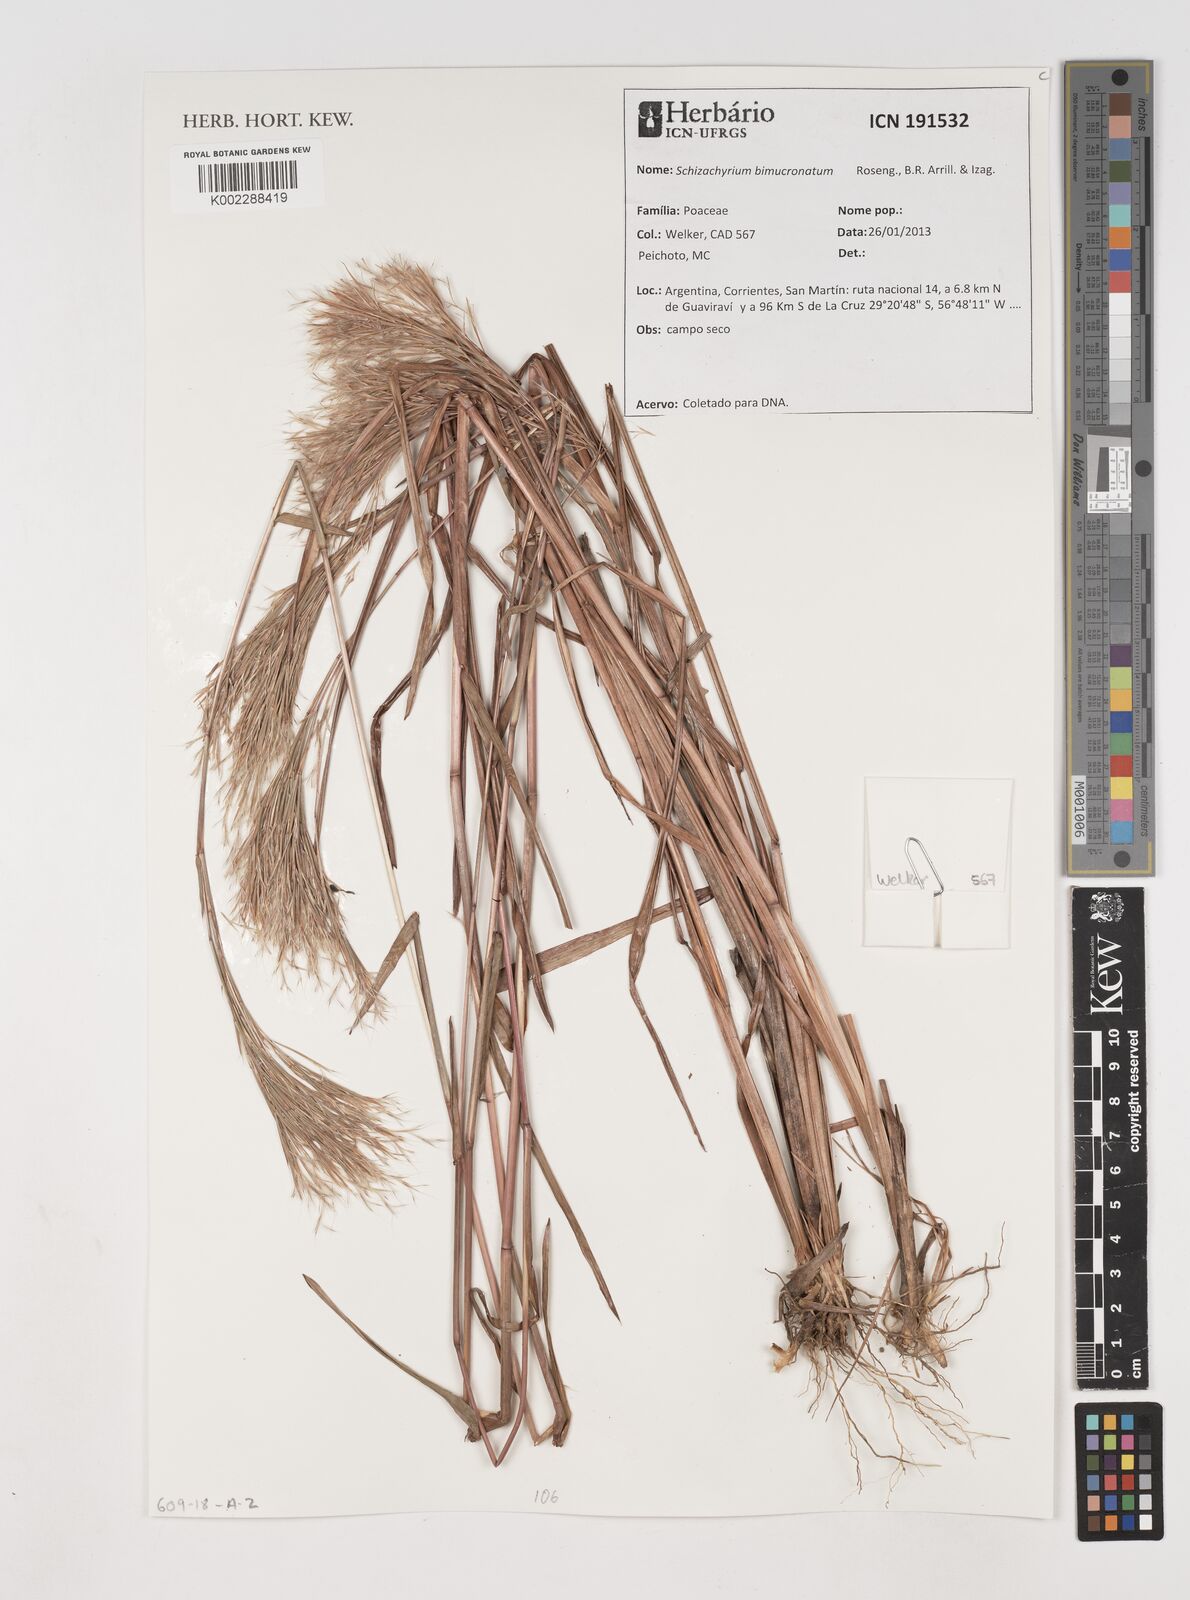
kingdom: Plantae
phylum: Tracheophyta
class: Liliopsida
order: Poales
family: Poaceae
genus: Schizachyrium
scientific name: Schizachyrium condensatum
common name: Bush beardgrass
